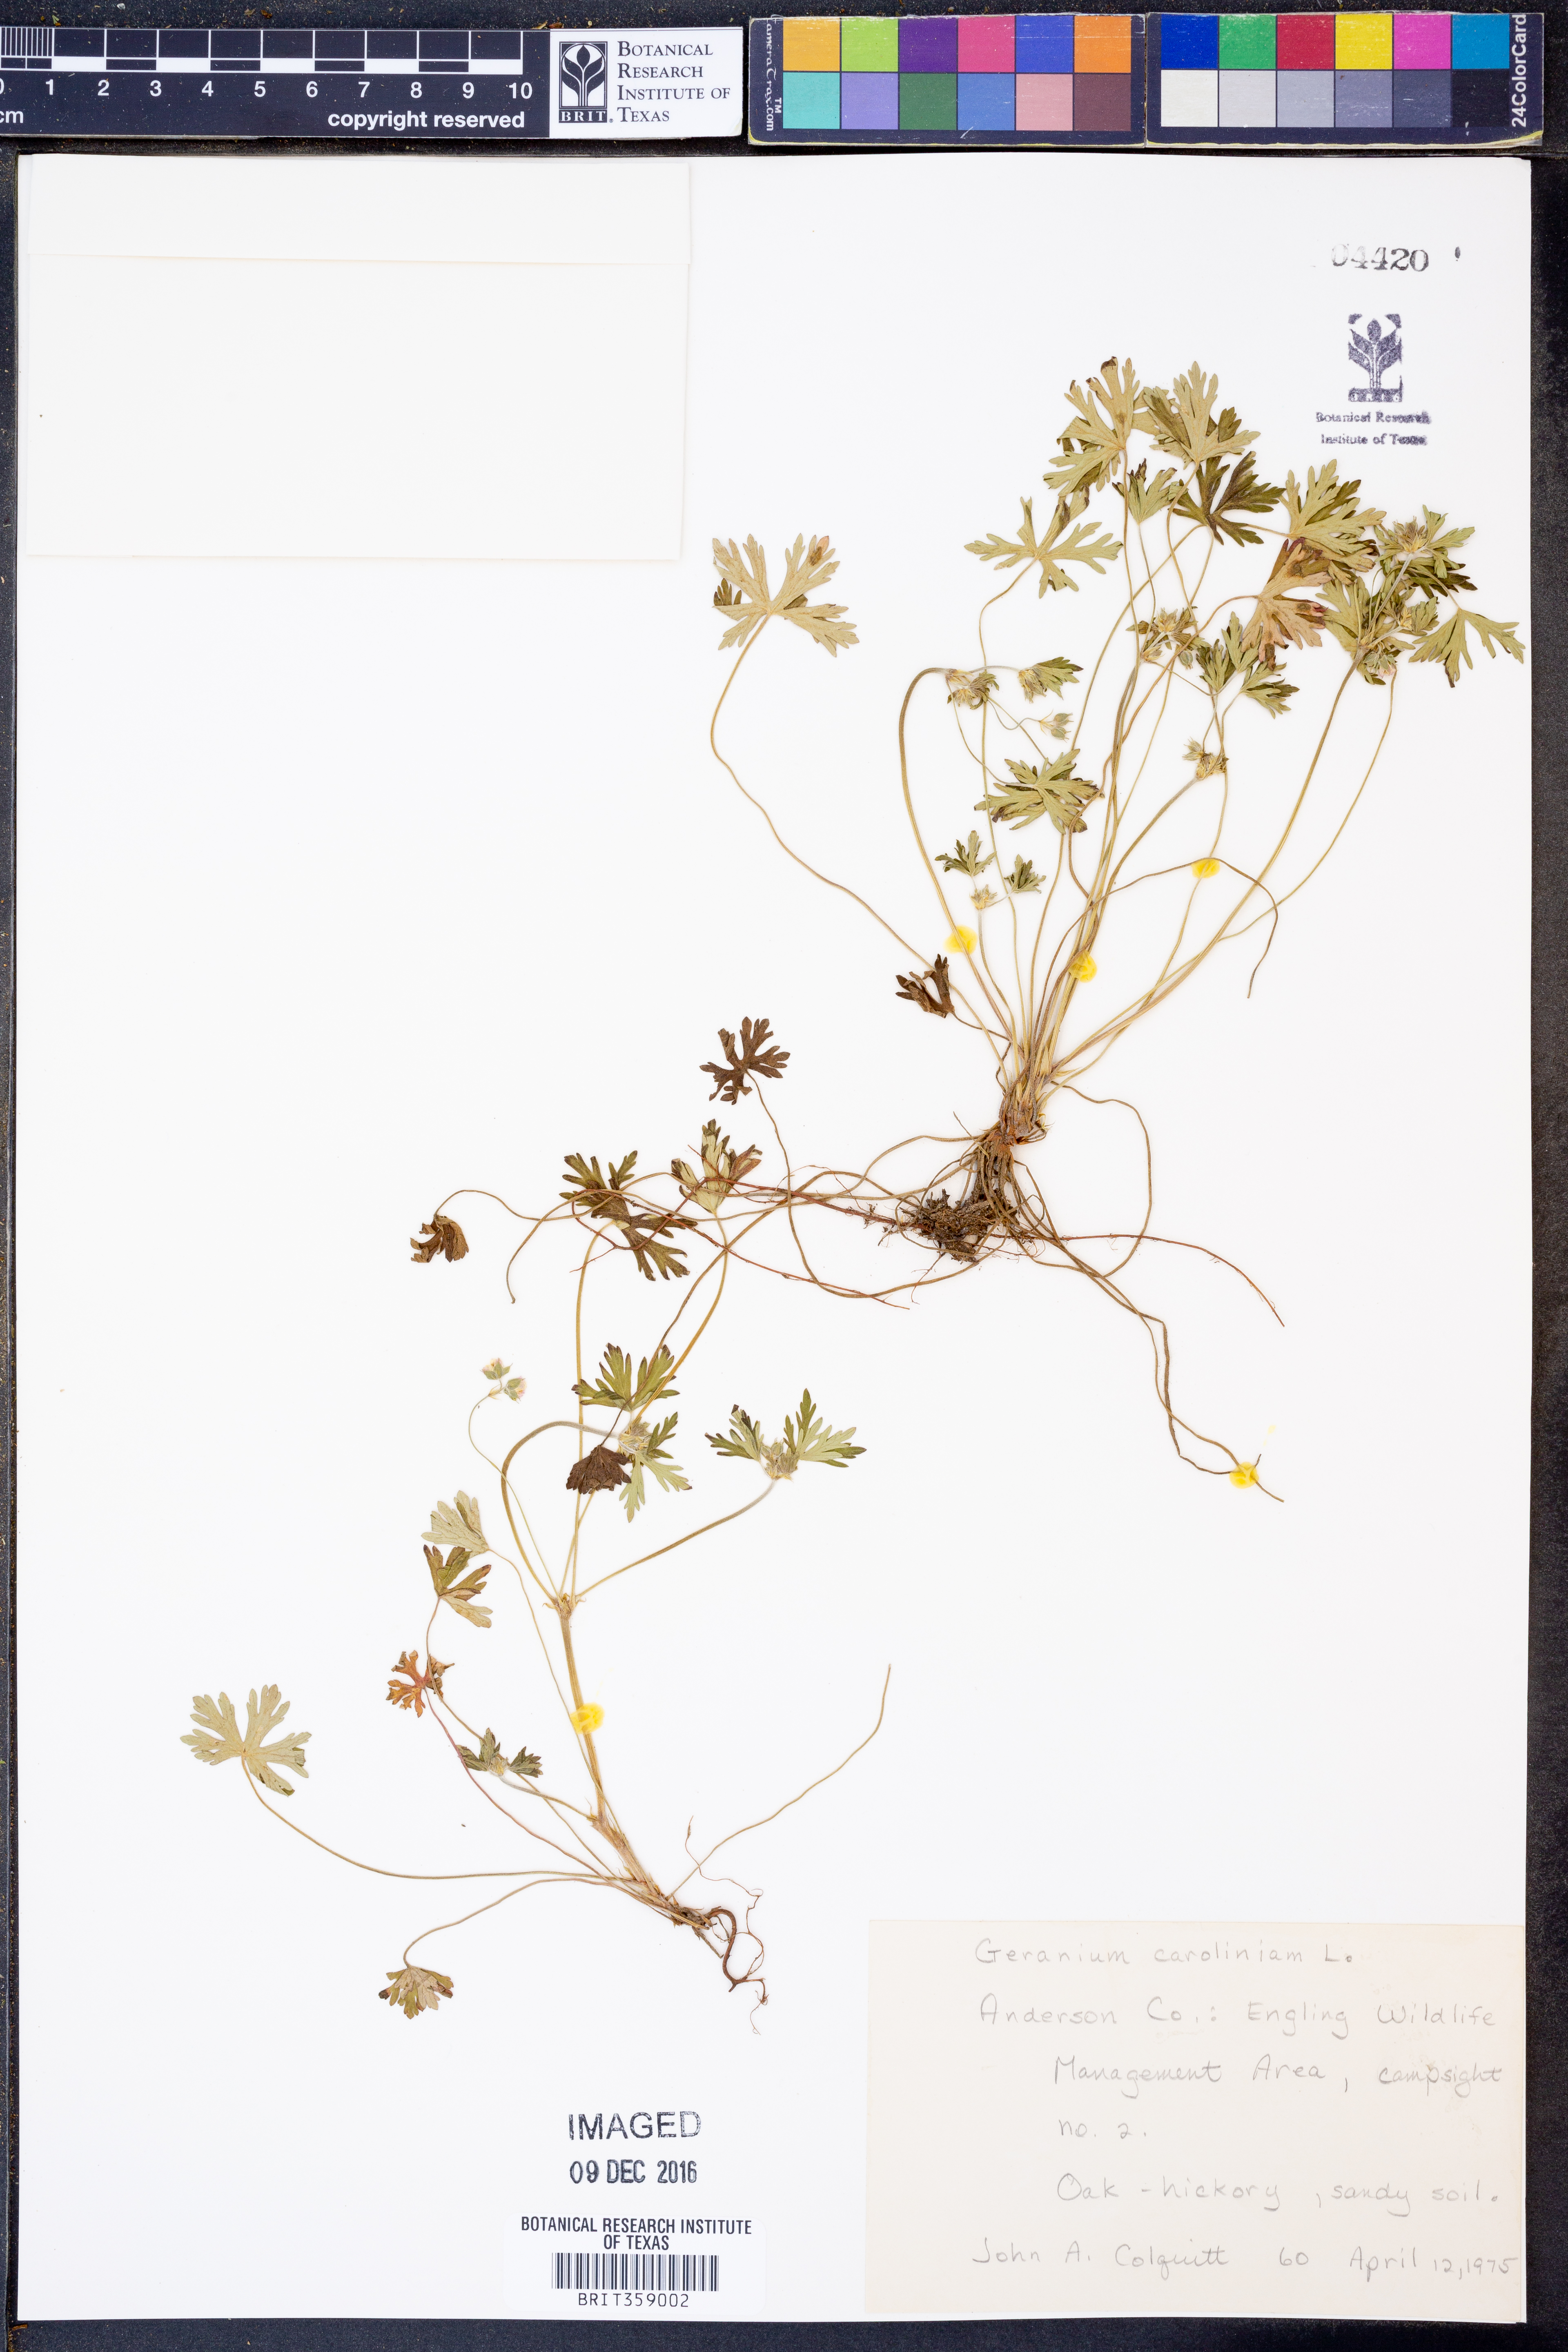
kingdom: Plantae
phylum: Tracheophyta
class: Magnoliopsida
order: Geraniales
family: Geraniaceae
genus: Geranium
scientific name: Geranium carolinianum
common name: Carolina crane's-bill
